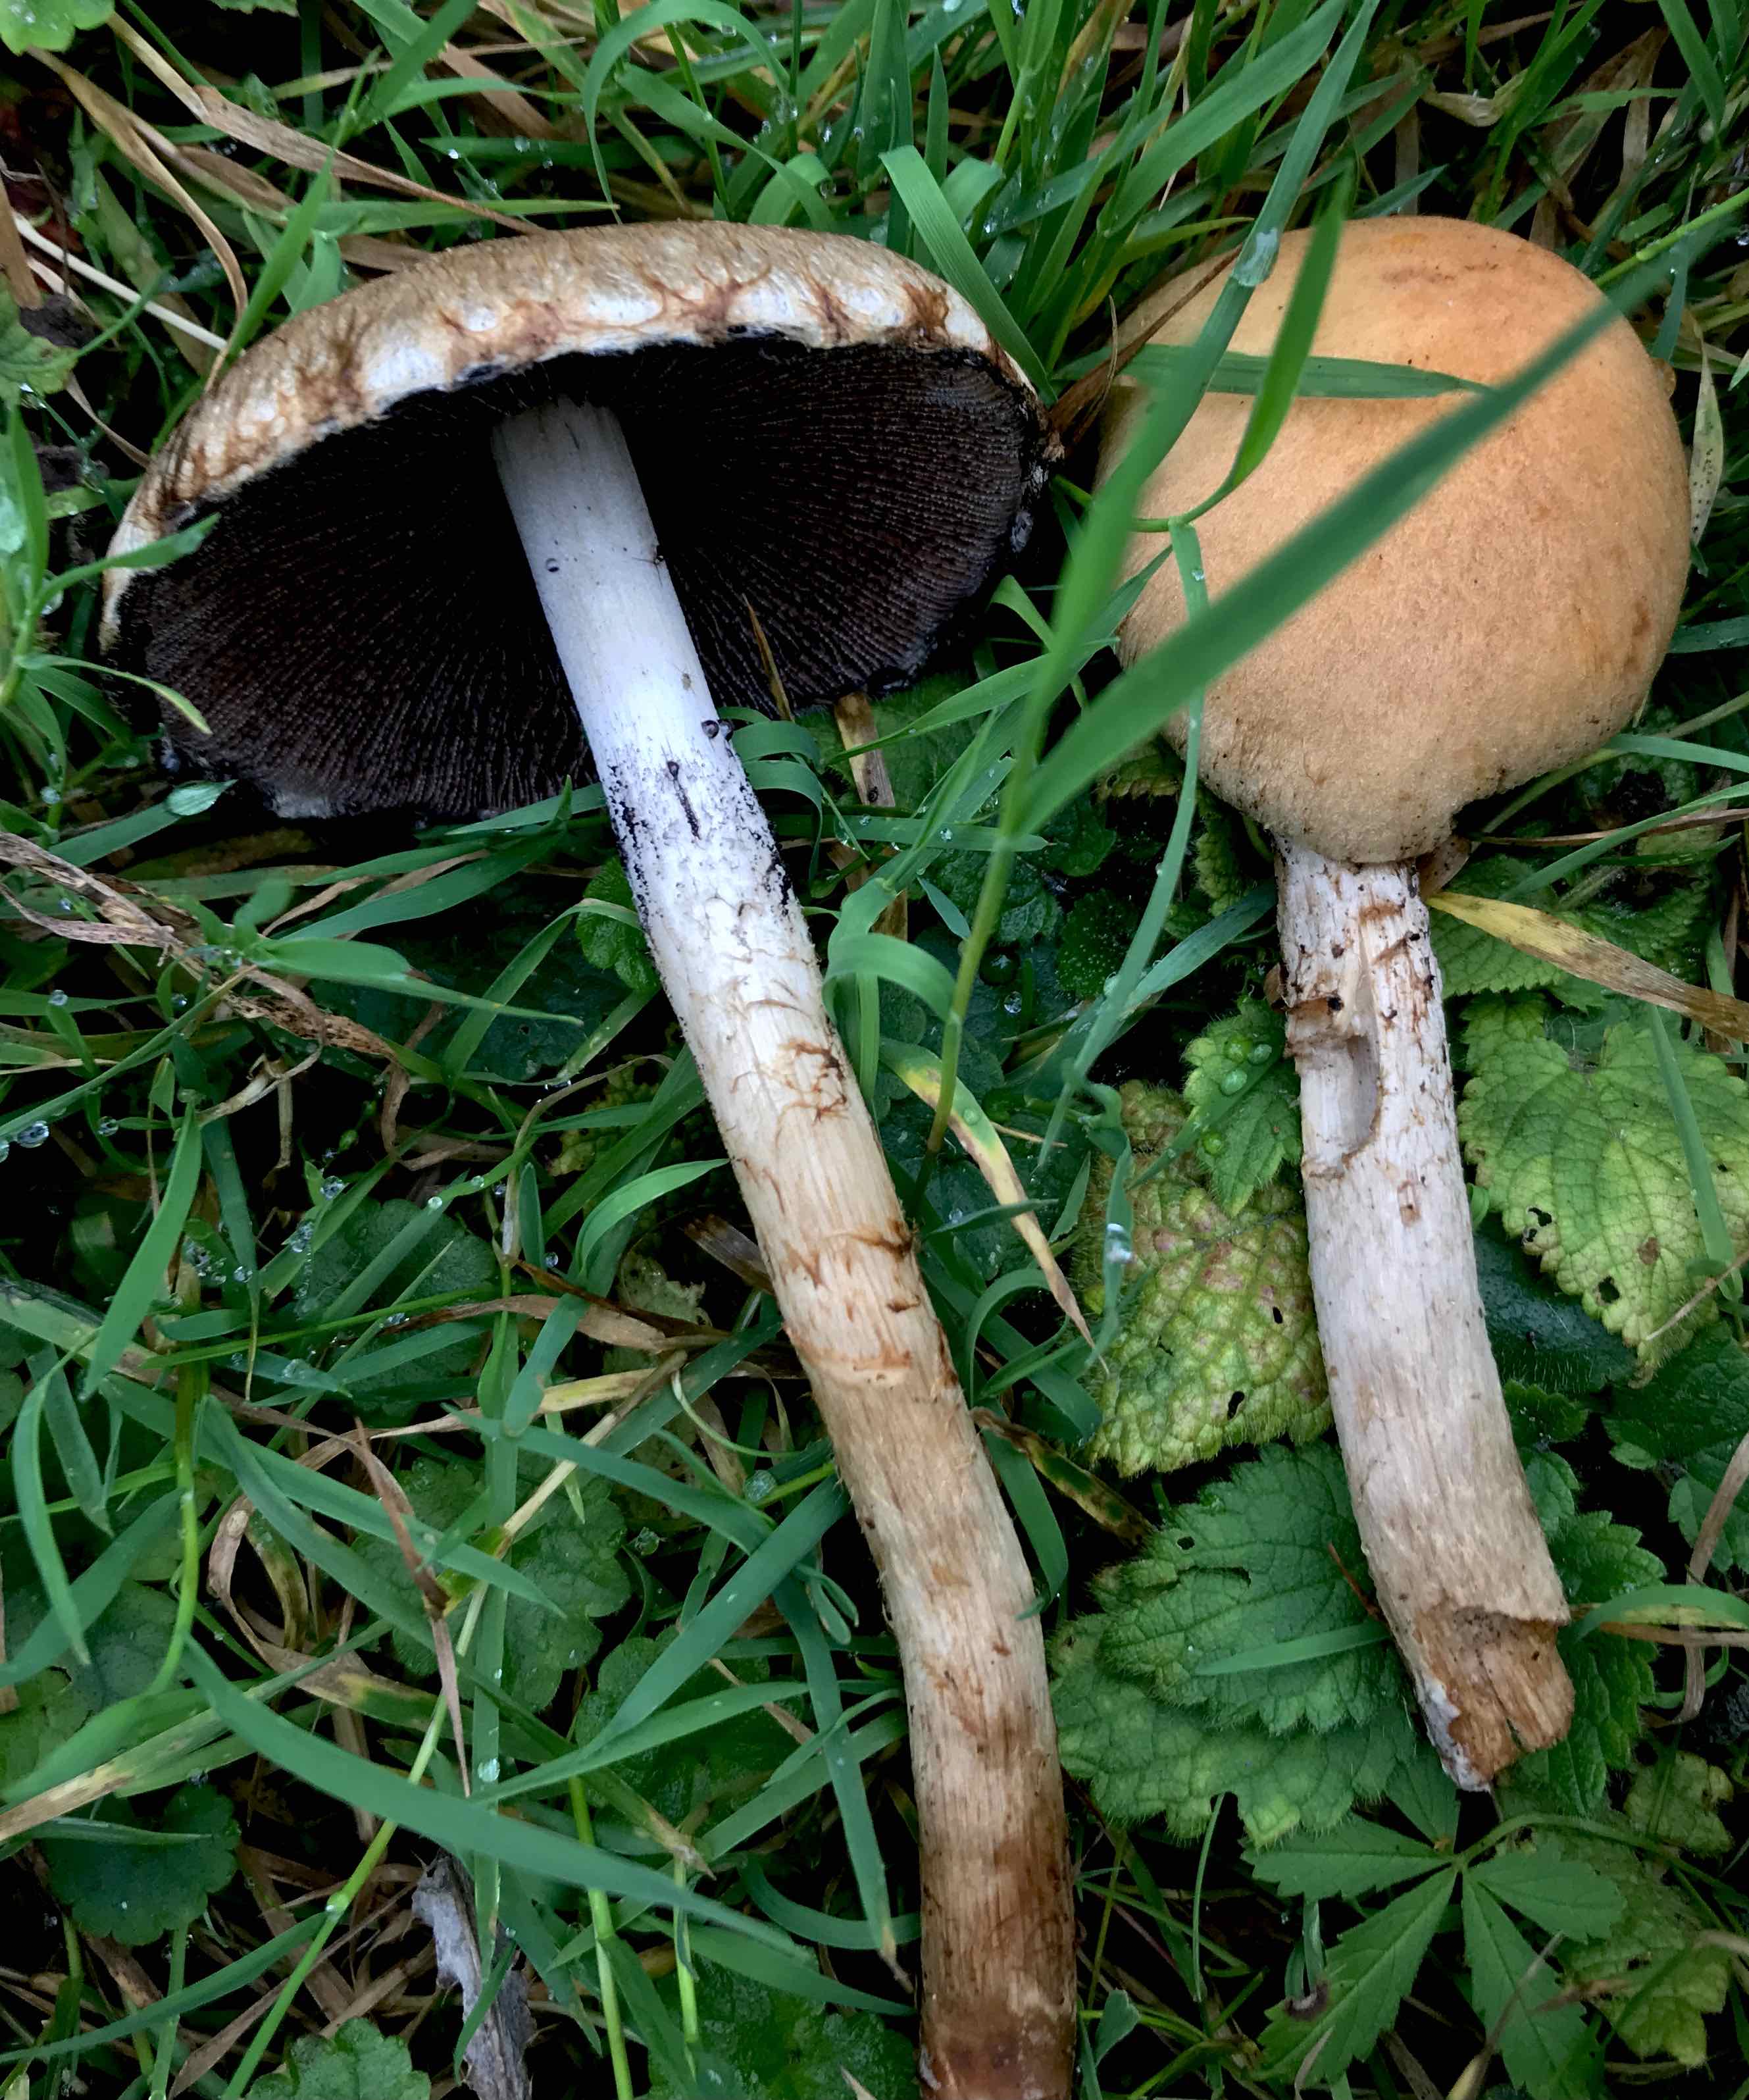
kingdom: Fungi
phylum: Basidiomycota
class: Agaricomycetes
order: Agaricales
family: Psathyrellaceae
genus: Lacrymaria
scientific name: Lacrymaria lacrymabunda
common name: grædende mørkhat
